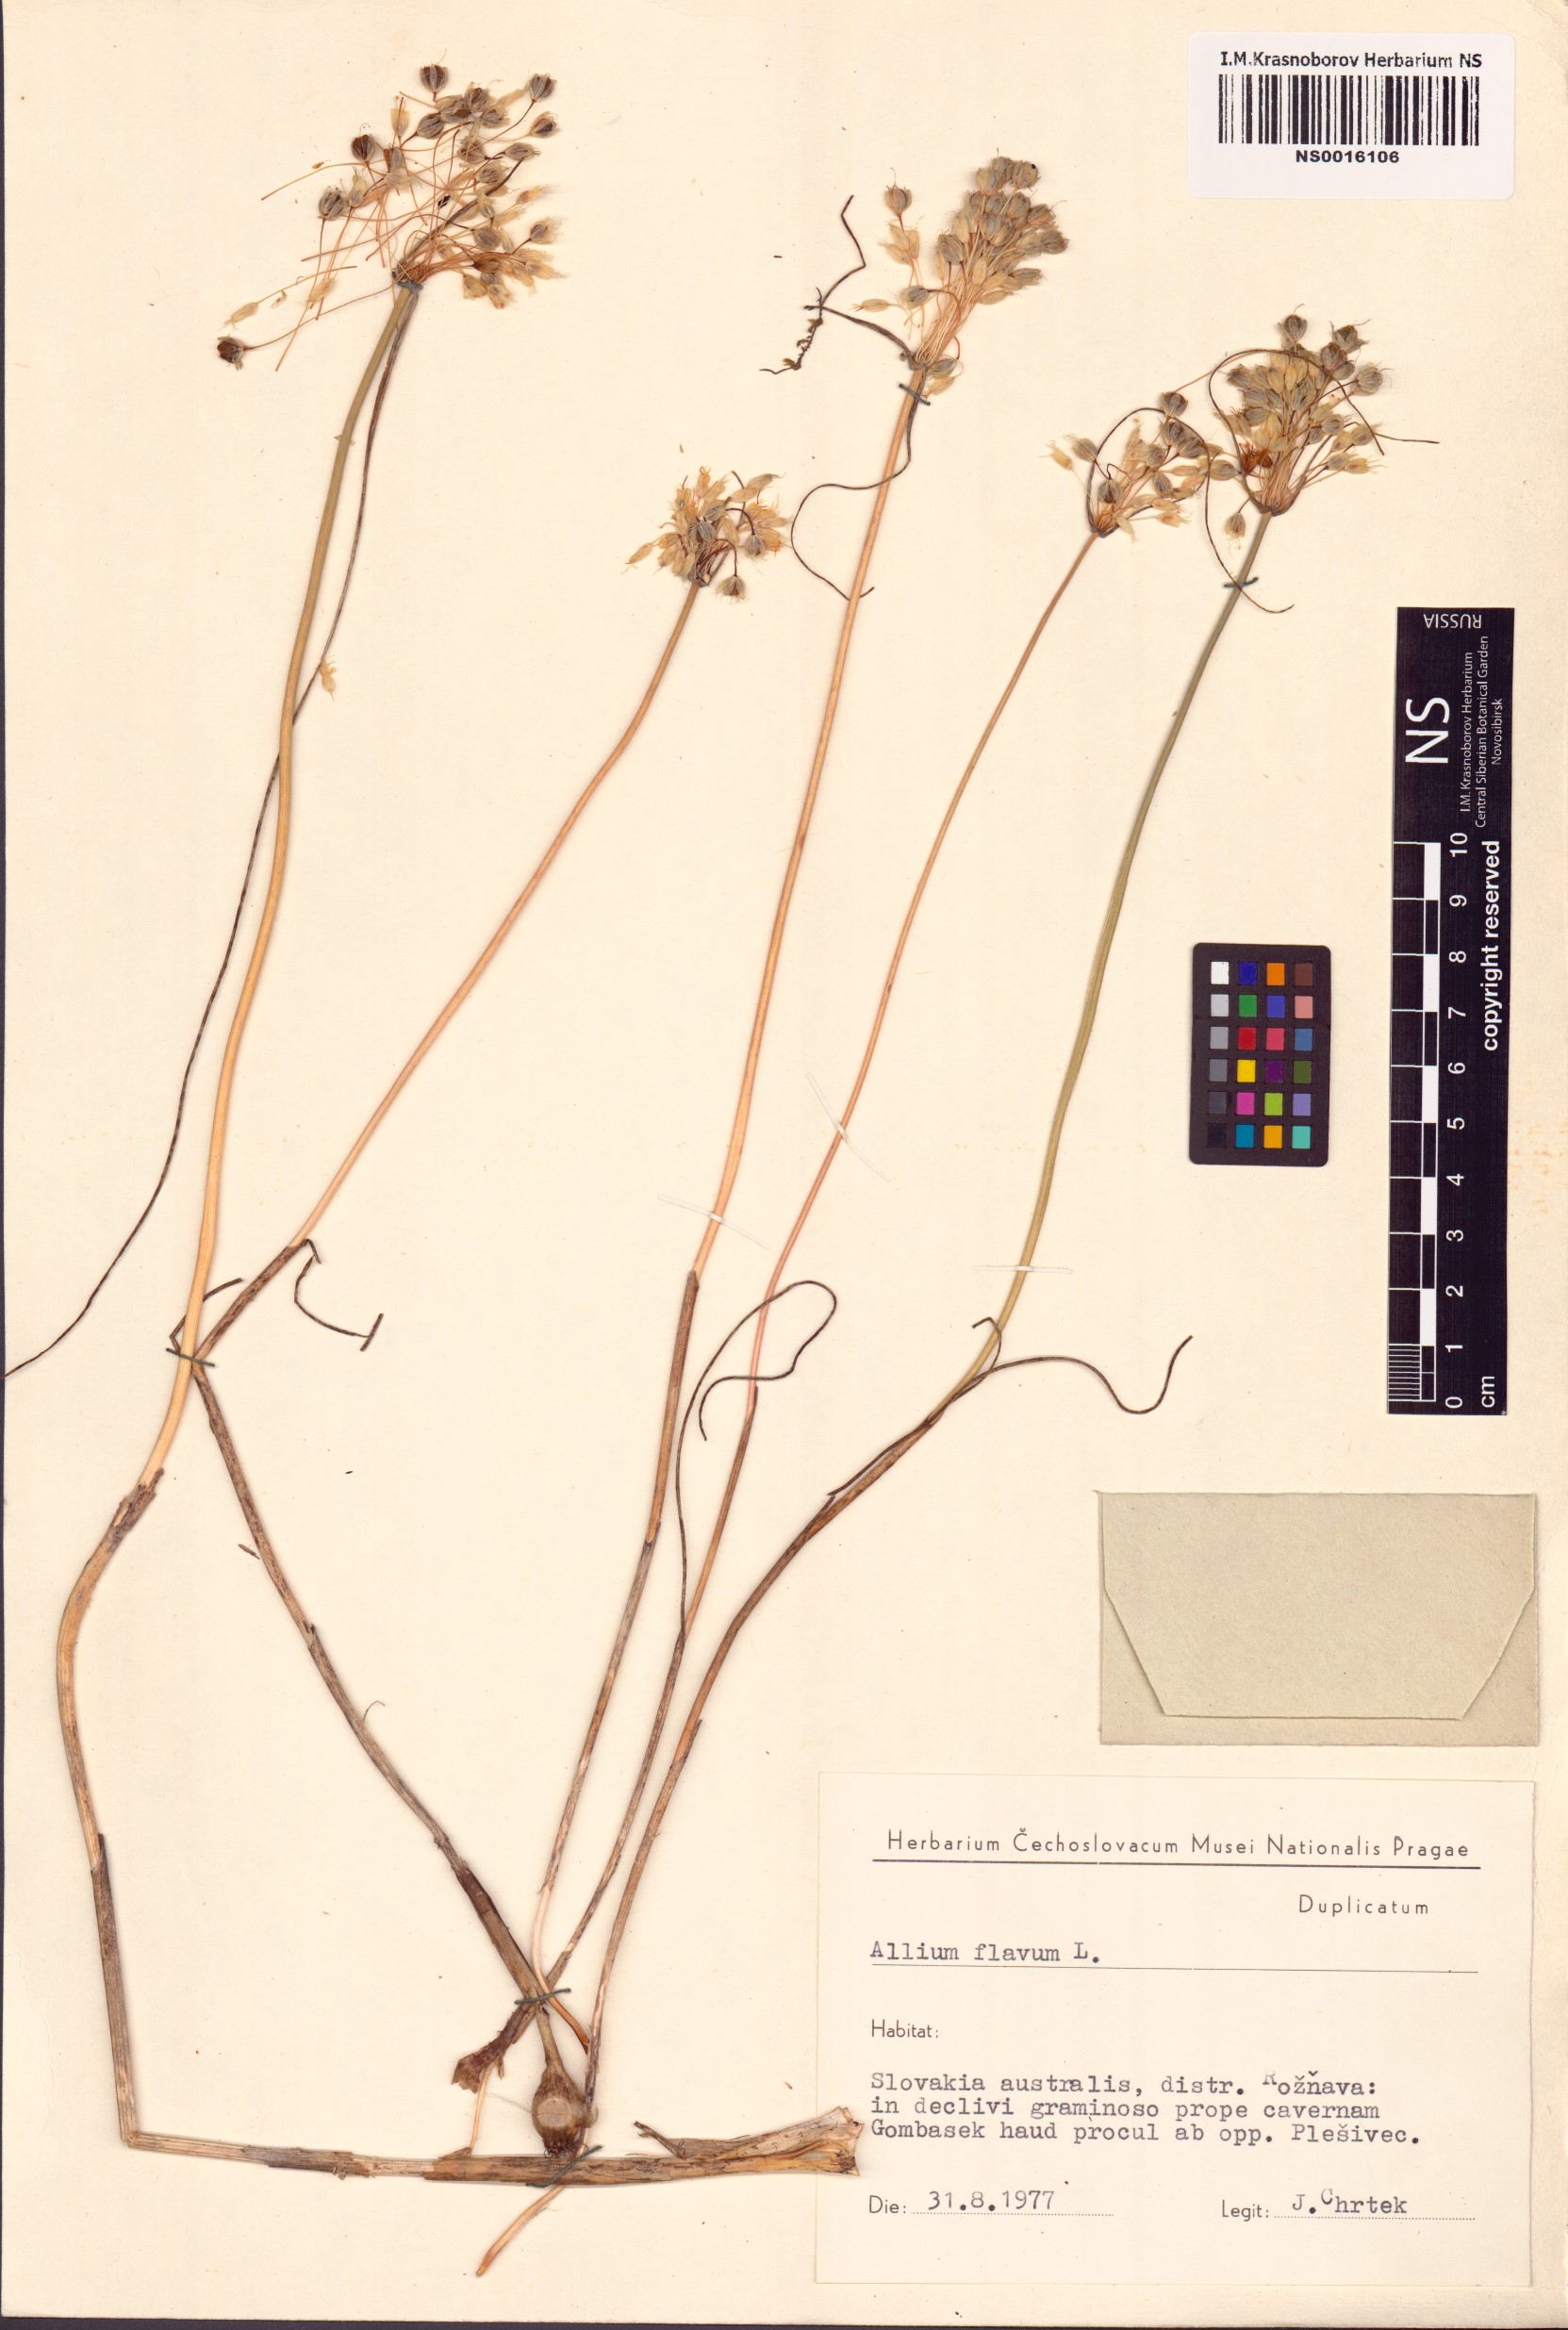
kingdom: Plantae
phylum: Tracheophyta
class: Liliopsida
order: Asparagales
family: Amaryllidaceae
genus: Allium
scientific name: Allium flavum
